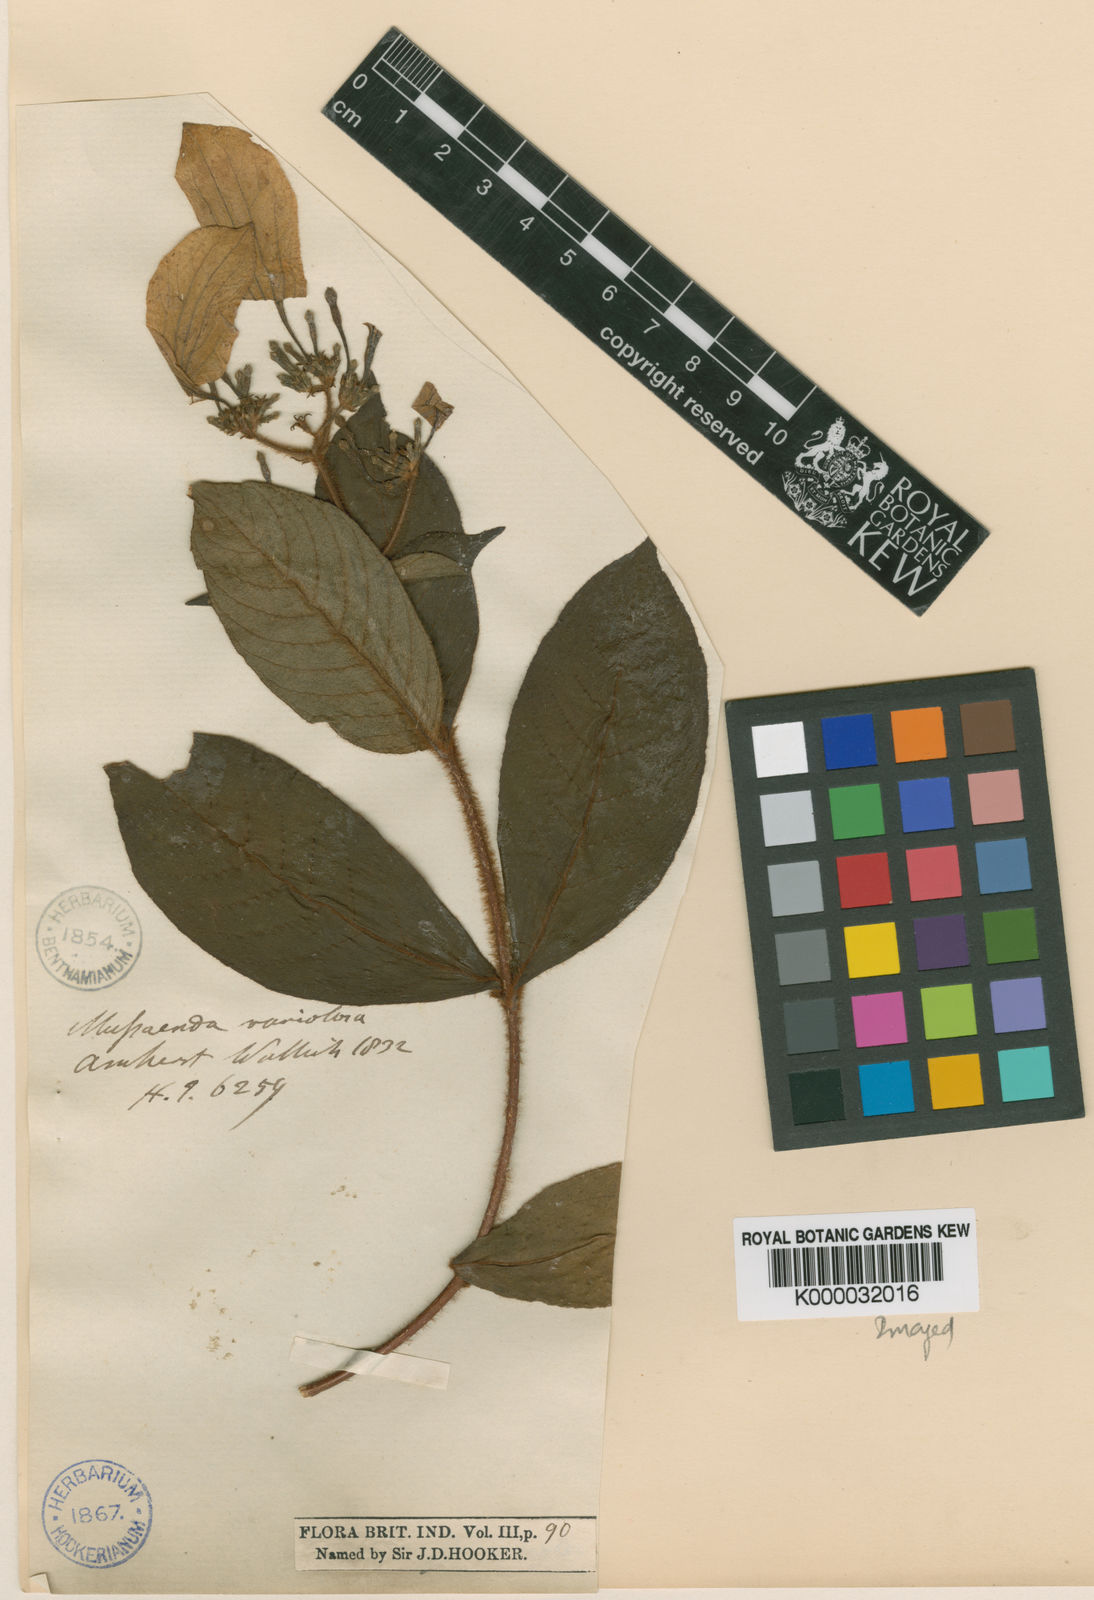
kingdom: Plantae
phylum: Tracheophyta
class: Magnoliopsida
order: Gentianales
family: Rubiaceae
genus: Mussaenda
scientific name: Mussaenda
